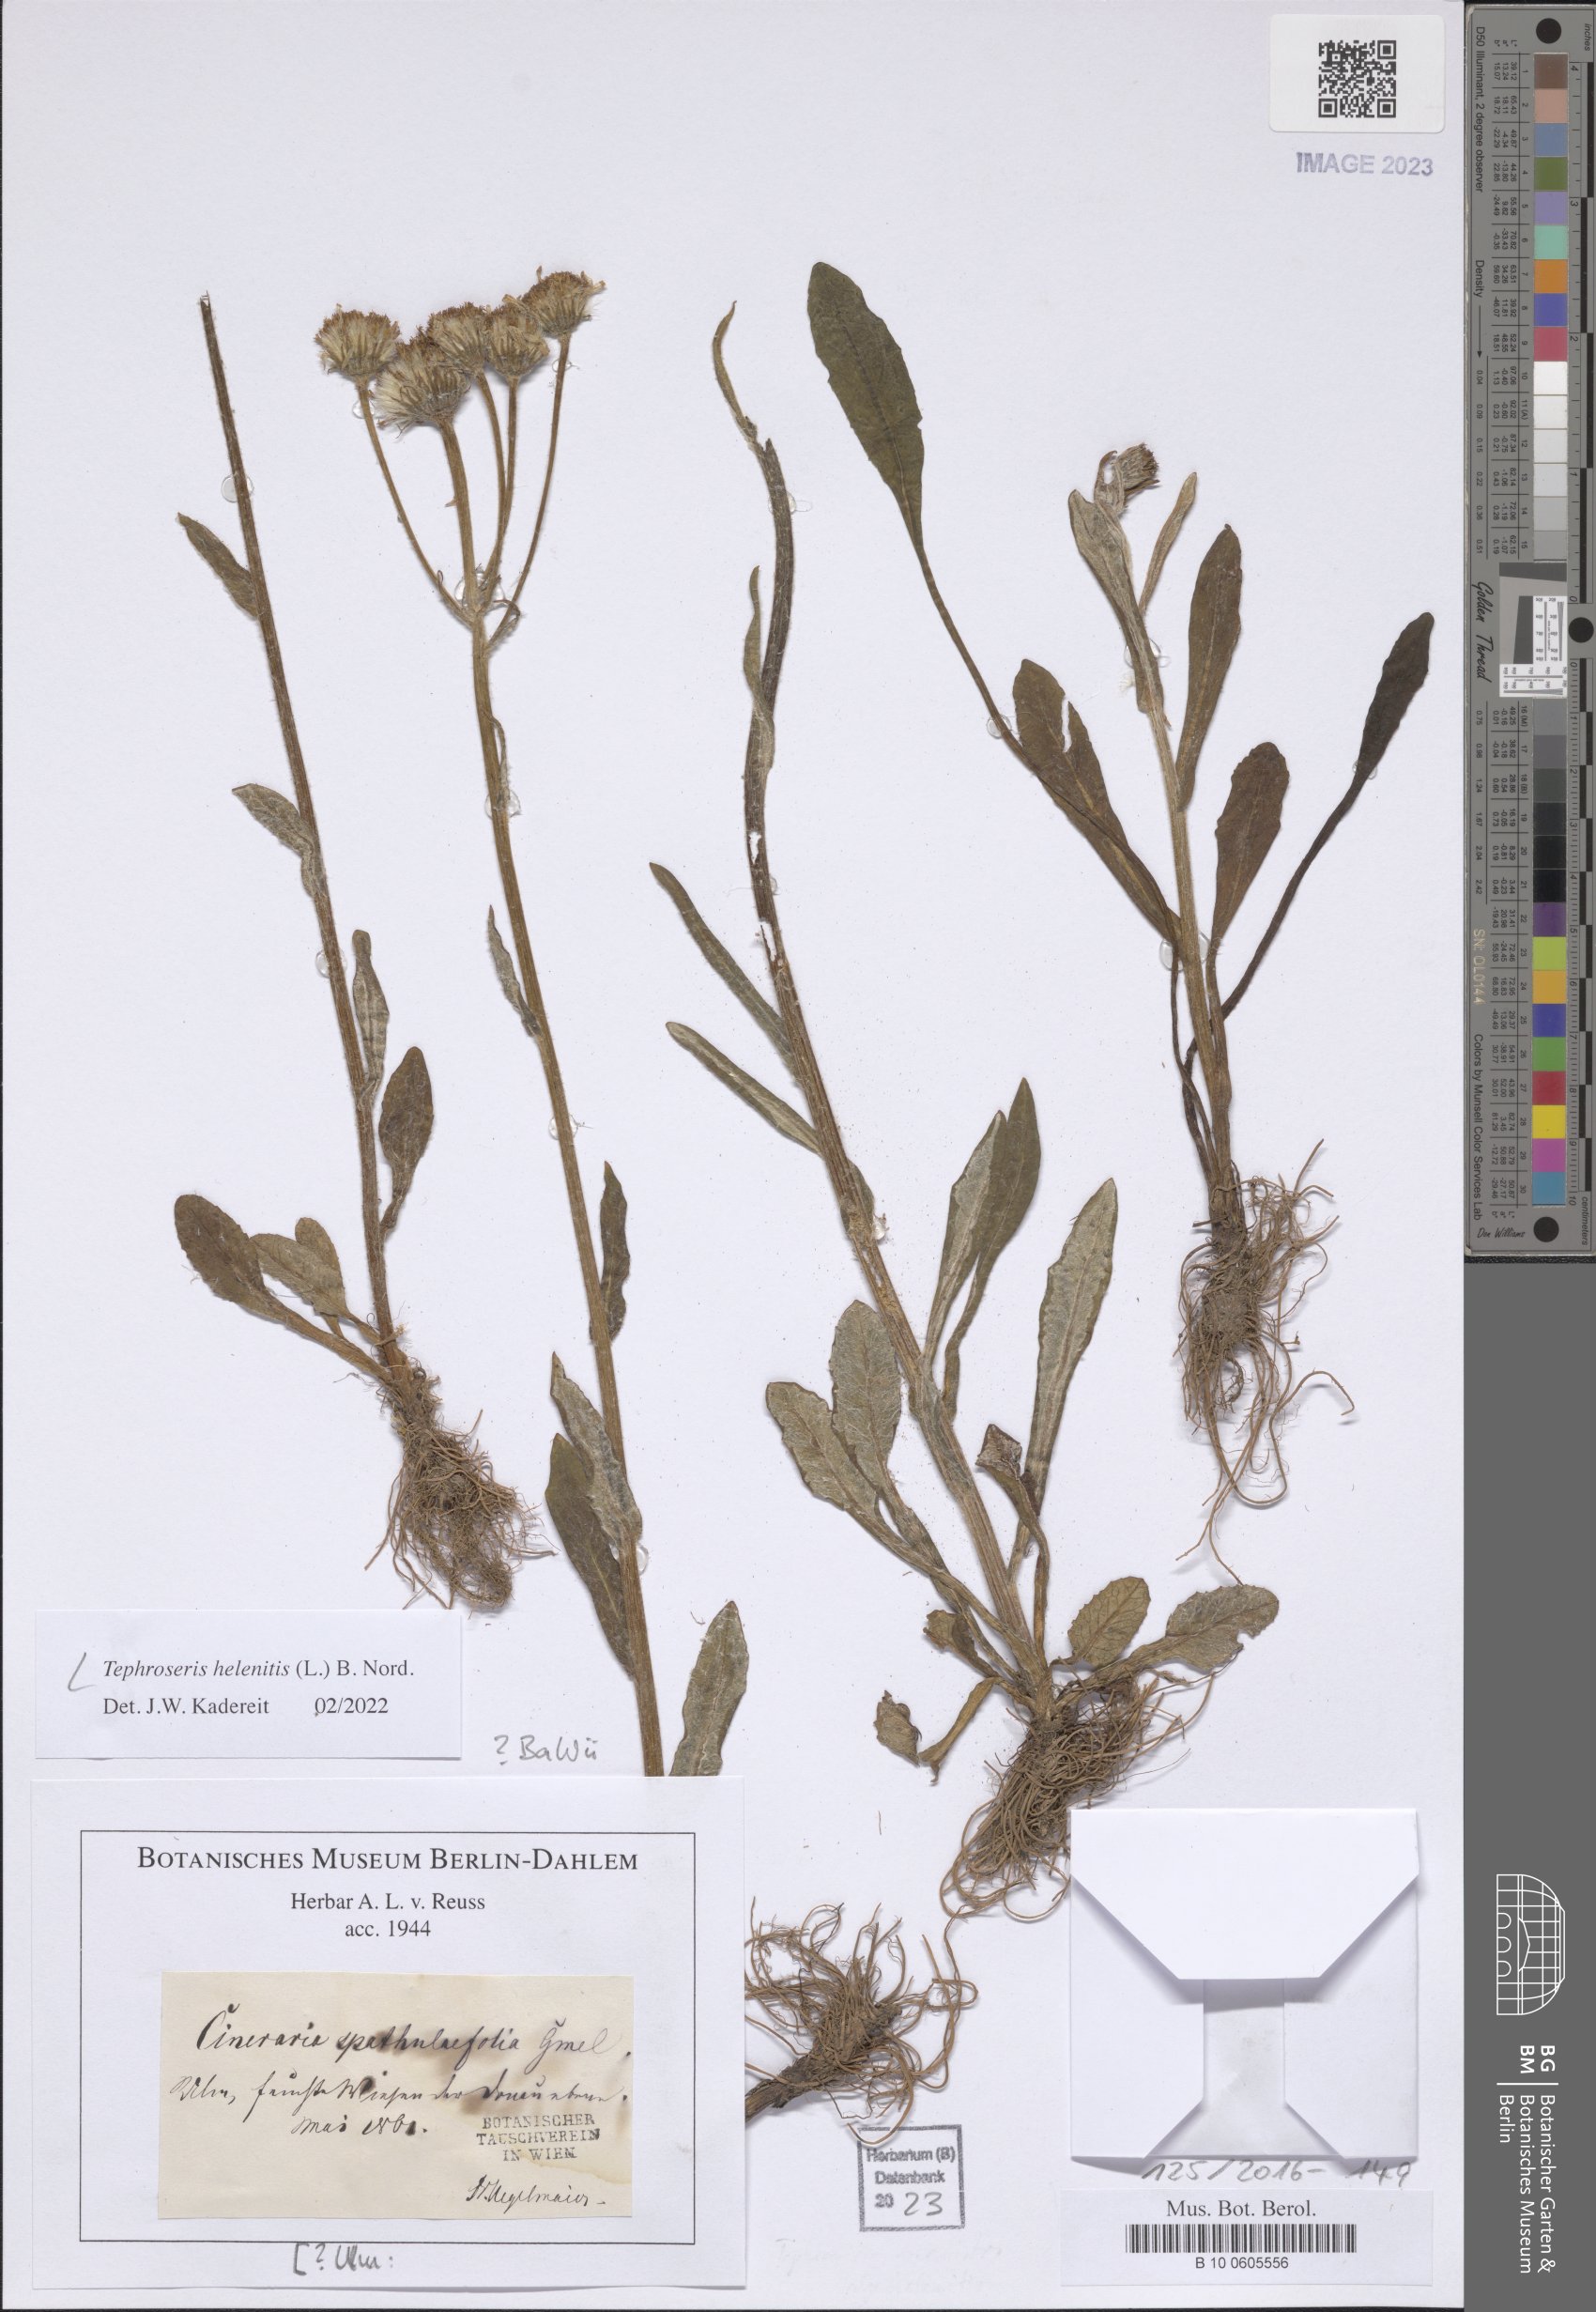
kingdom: Plantae
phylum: Tracheophyta
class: Magnoliopsida
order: Asterales
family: Asteraceae
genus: Tephroseris
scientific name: Tephroseris helenitis
